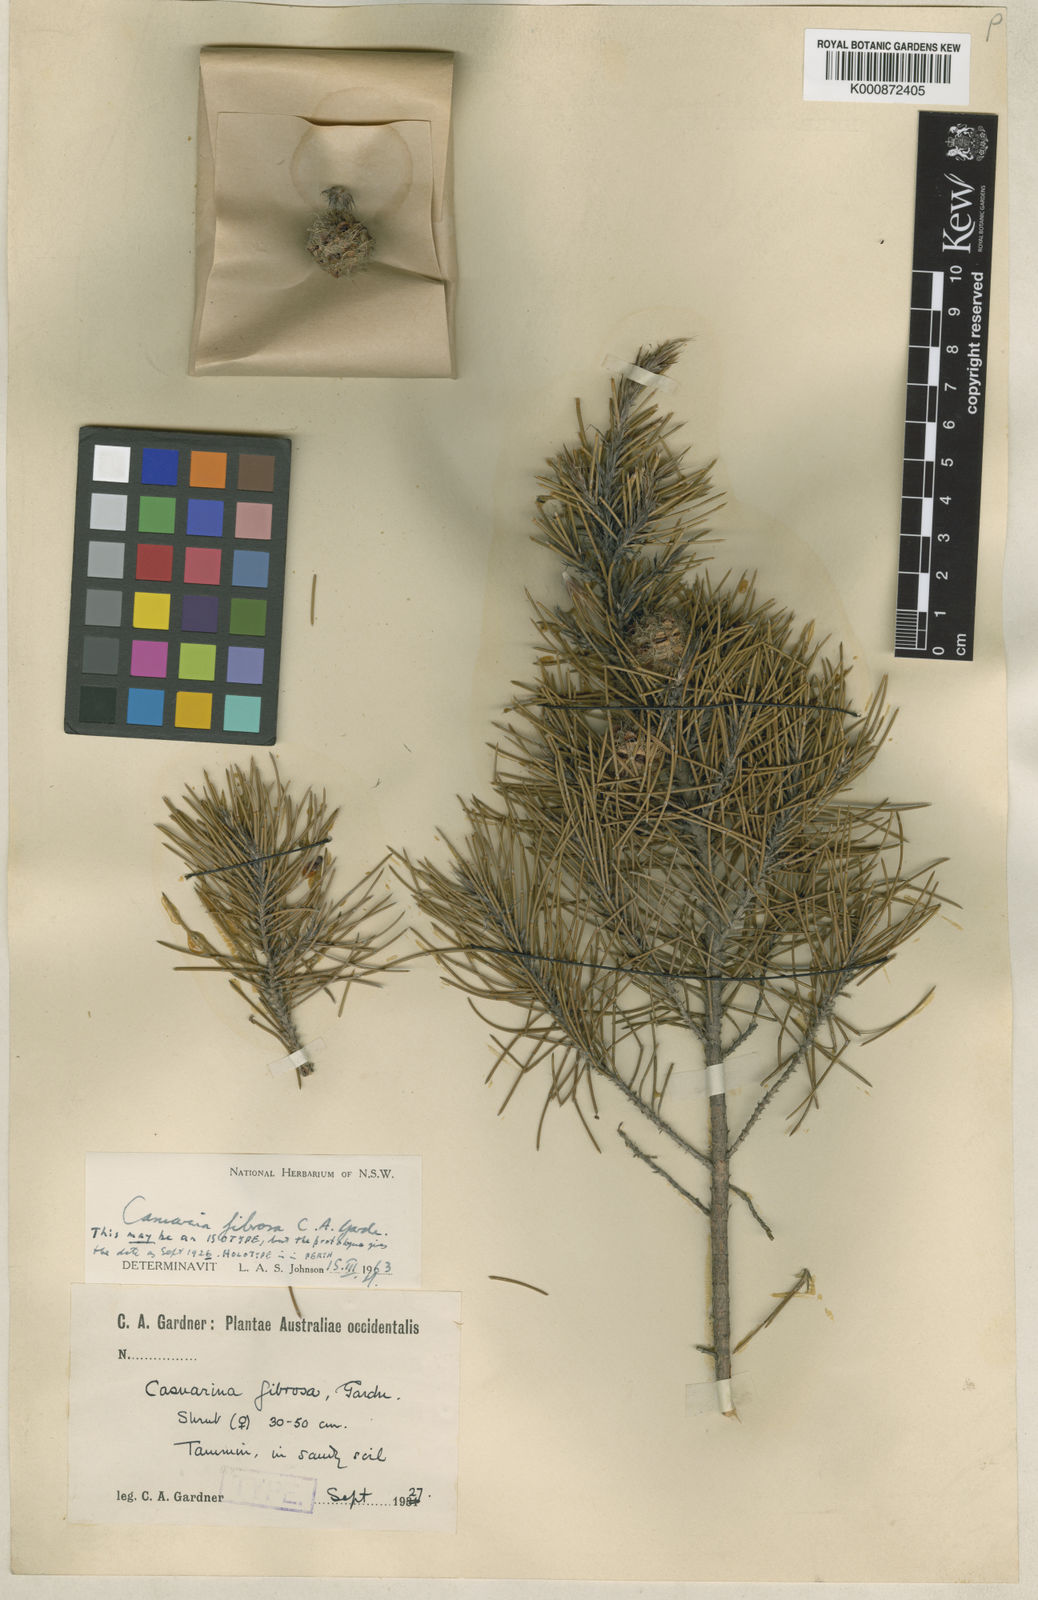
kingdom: Plantae
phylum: Tracheophyta
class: Magnoliopsida
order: Fagales
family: Casuarinaceae
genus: Allocasuarina
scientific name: Allocasuarina fibrosa
